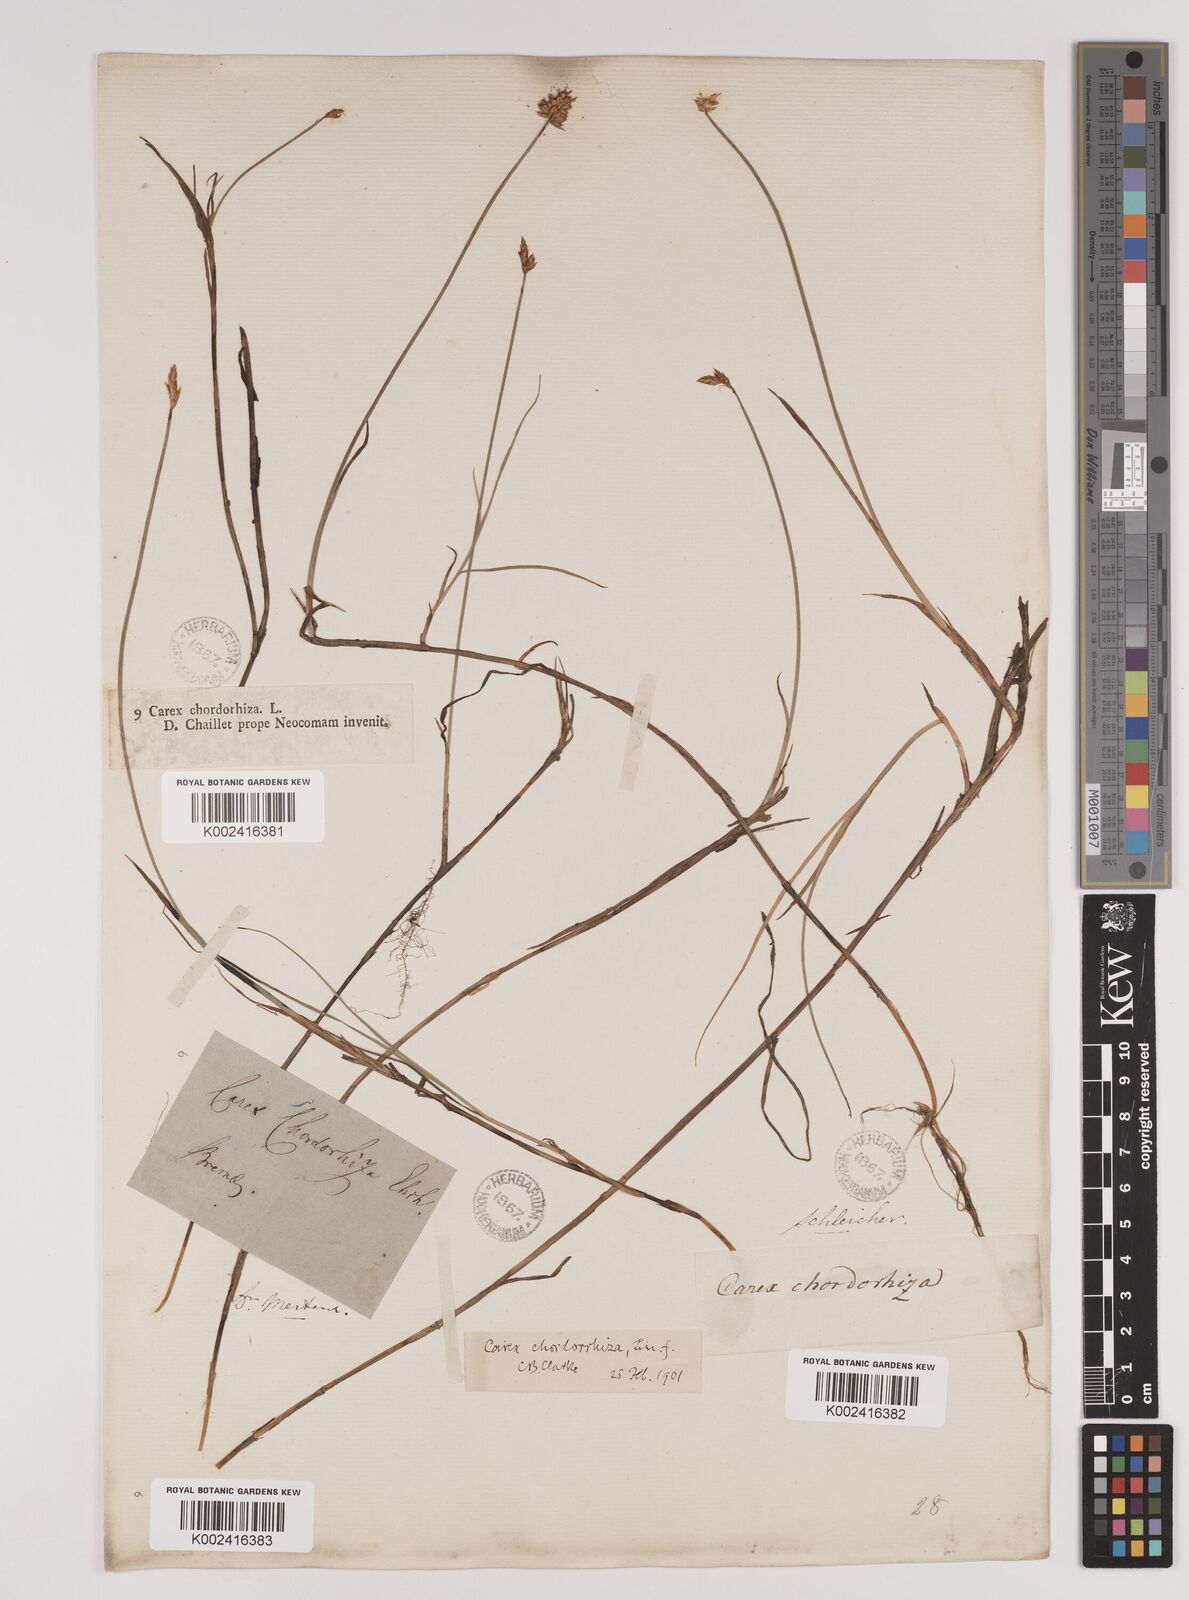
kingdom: Plantae
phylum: Tracheophyta
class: Liliopsida
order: Poales
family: Cyperaceae
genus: Carex
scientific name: Carex chordorrhiza
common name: String sedge
